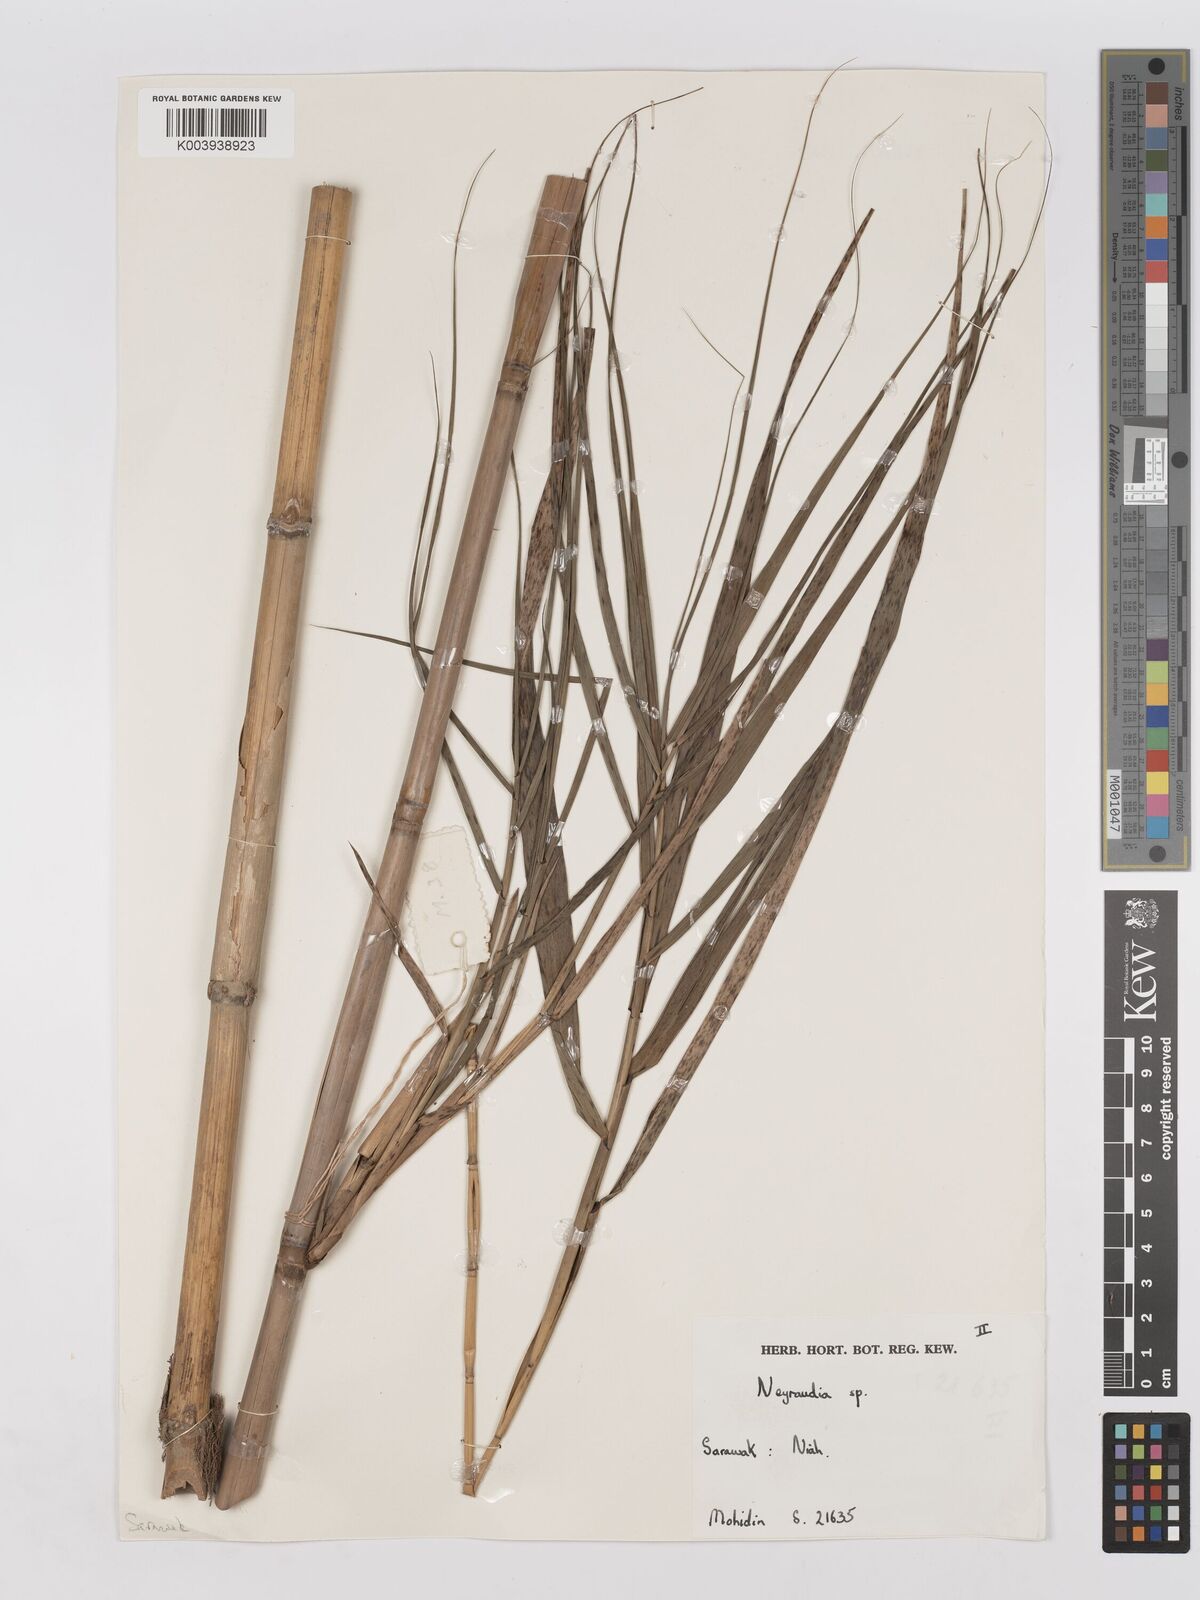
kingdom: Plantae
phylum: Tracheophyta
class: Liliopsida
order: Poales
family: Poaceae
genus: Phragmites
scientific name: Phragmites karka
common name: Tropical reed
